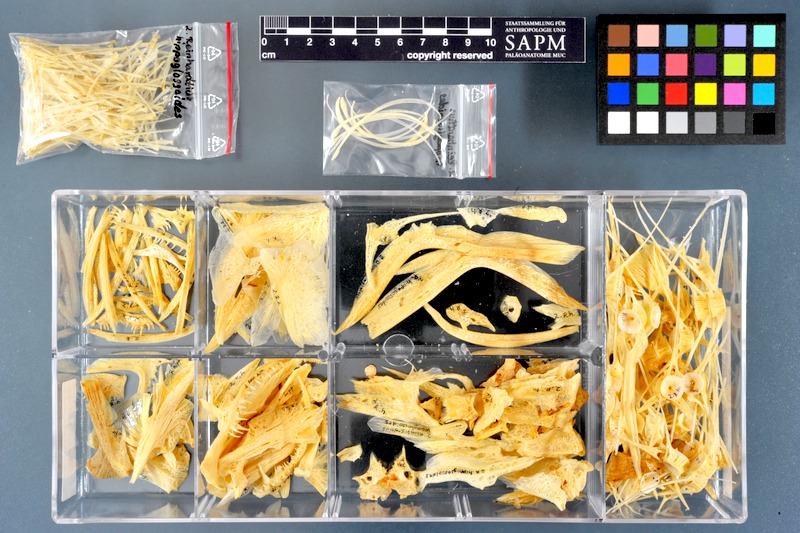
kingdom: Animalia
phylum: Chordata
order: Pleuronectiformes
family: Pleuronectidae
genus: Reinhardtius
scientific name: Reinhardtius hippoglossoides
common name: Greenland halibut
